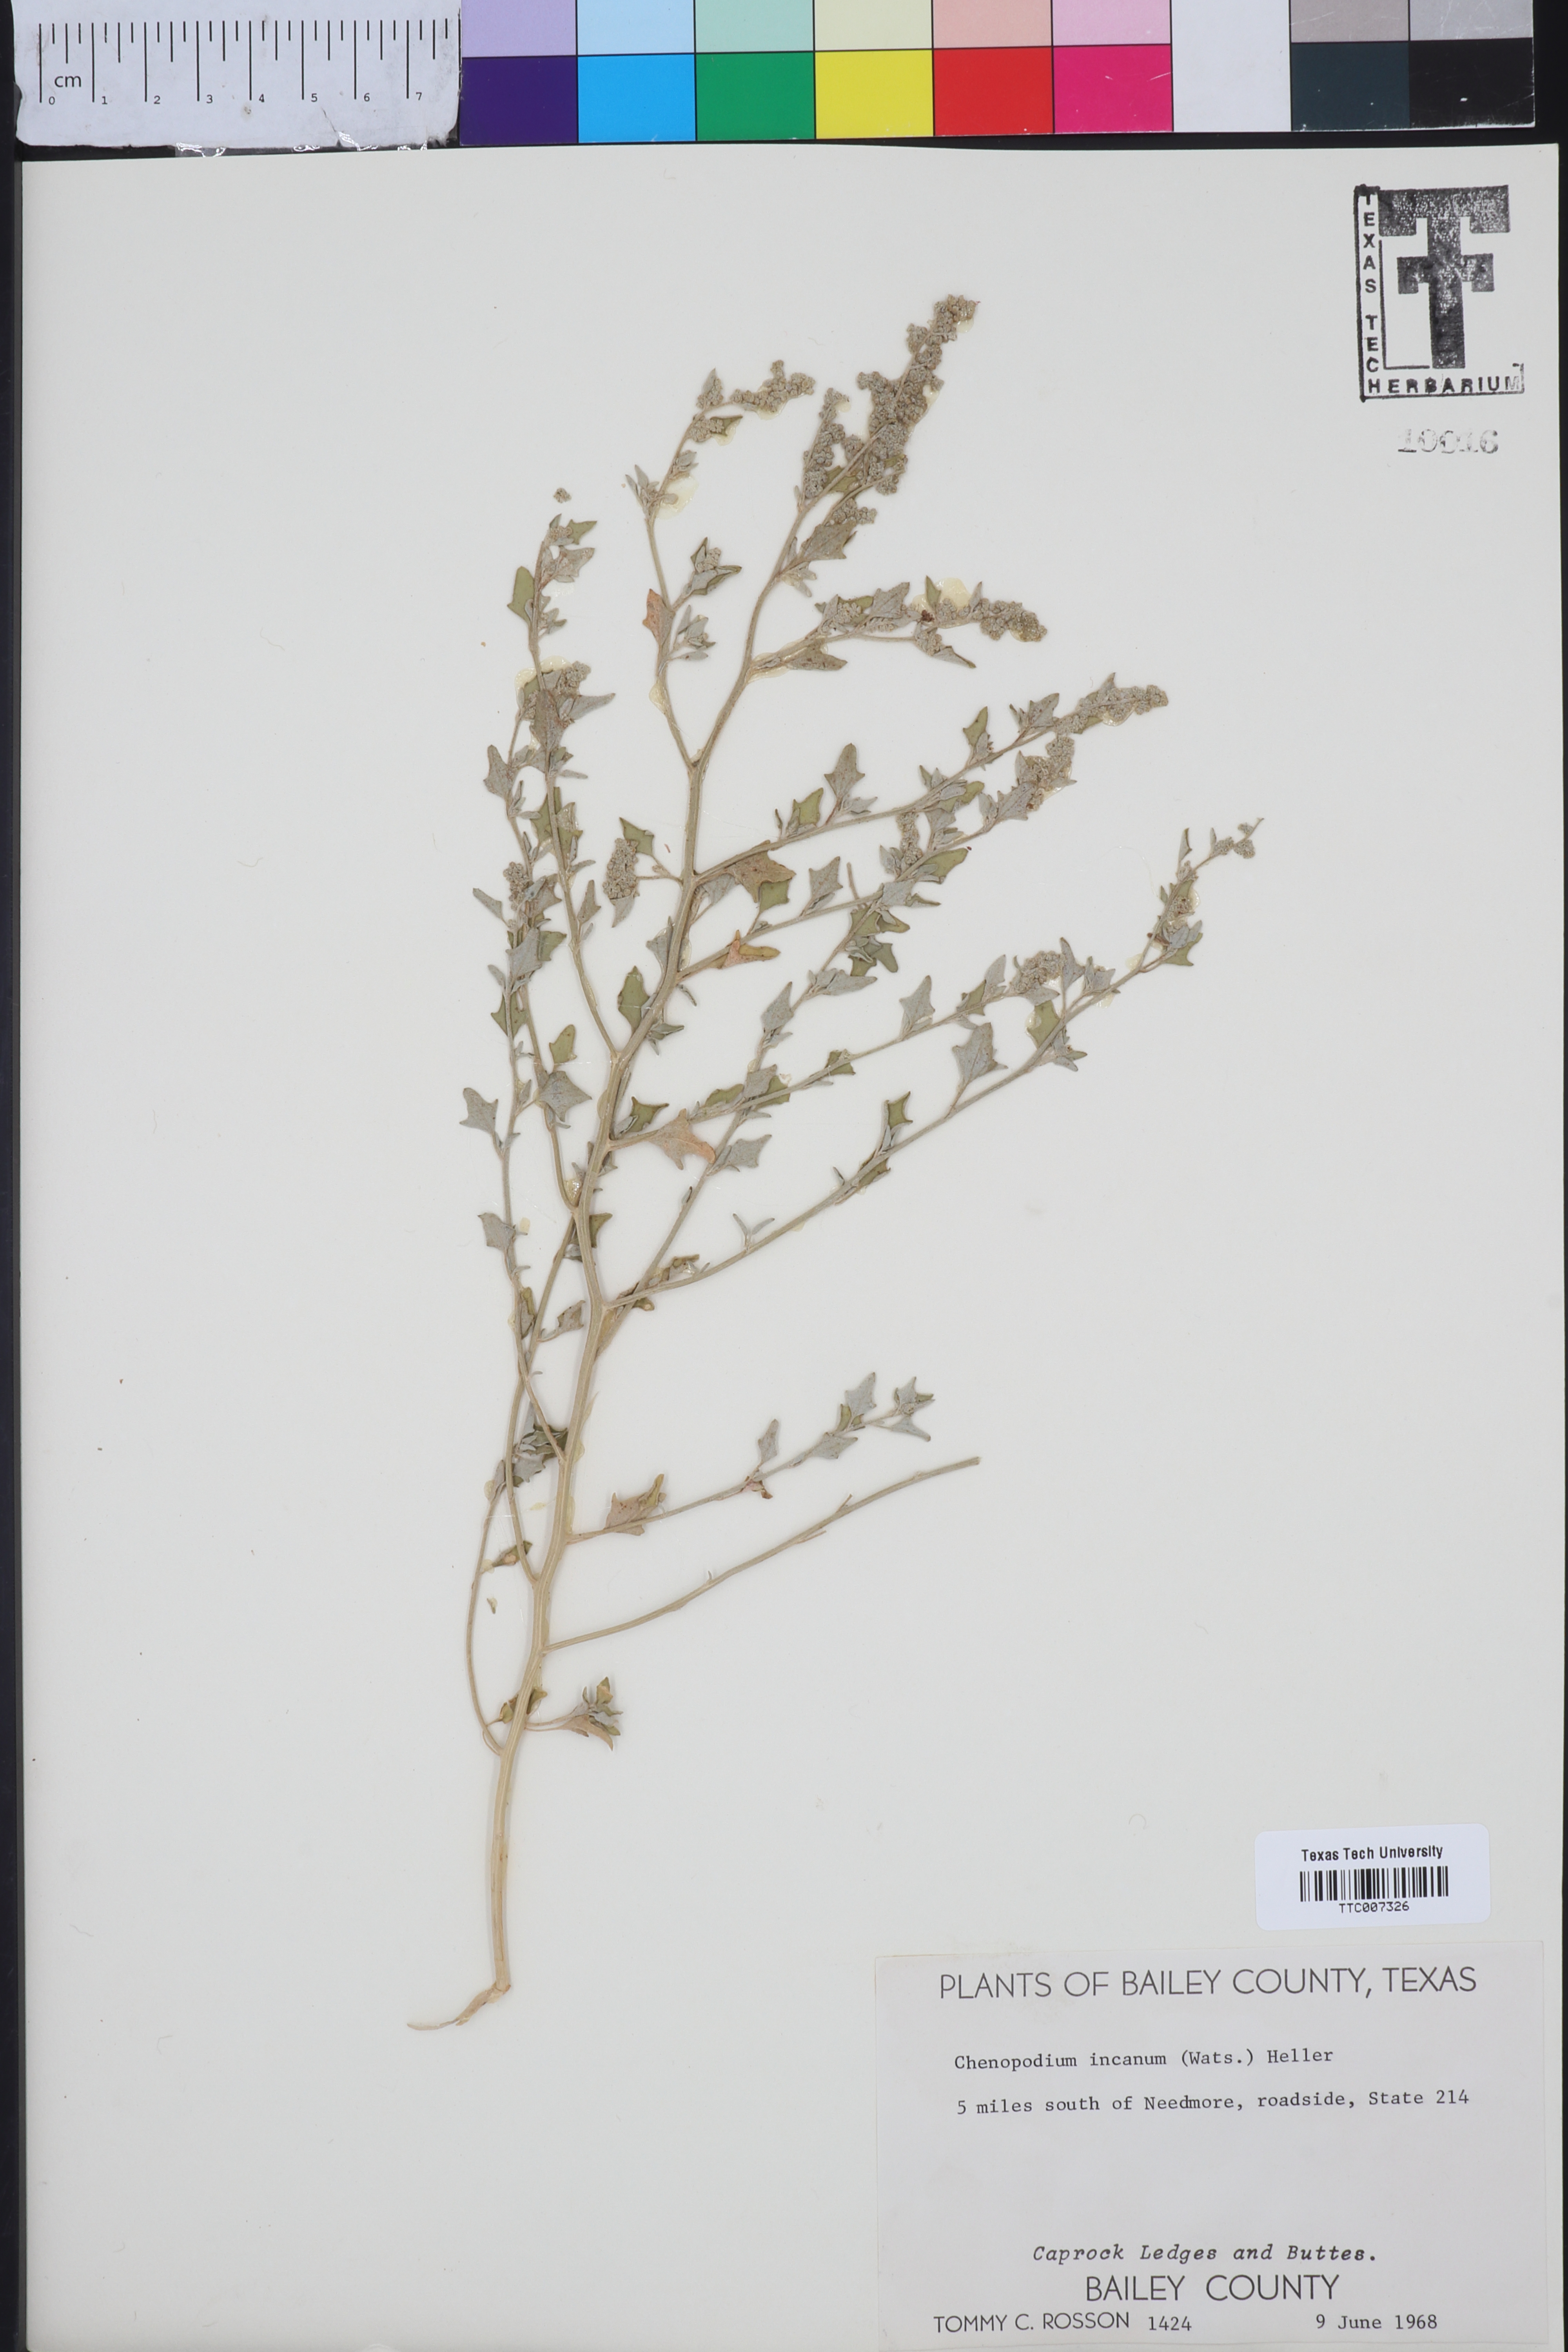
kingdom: Plantae
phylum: Tracheophyta
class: Magnoliopsida
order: Caryophyllales
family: Amaranthaceae
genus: Chenopodium
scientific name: Chenopodium incanum
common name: Hoary goosefoot
